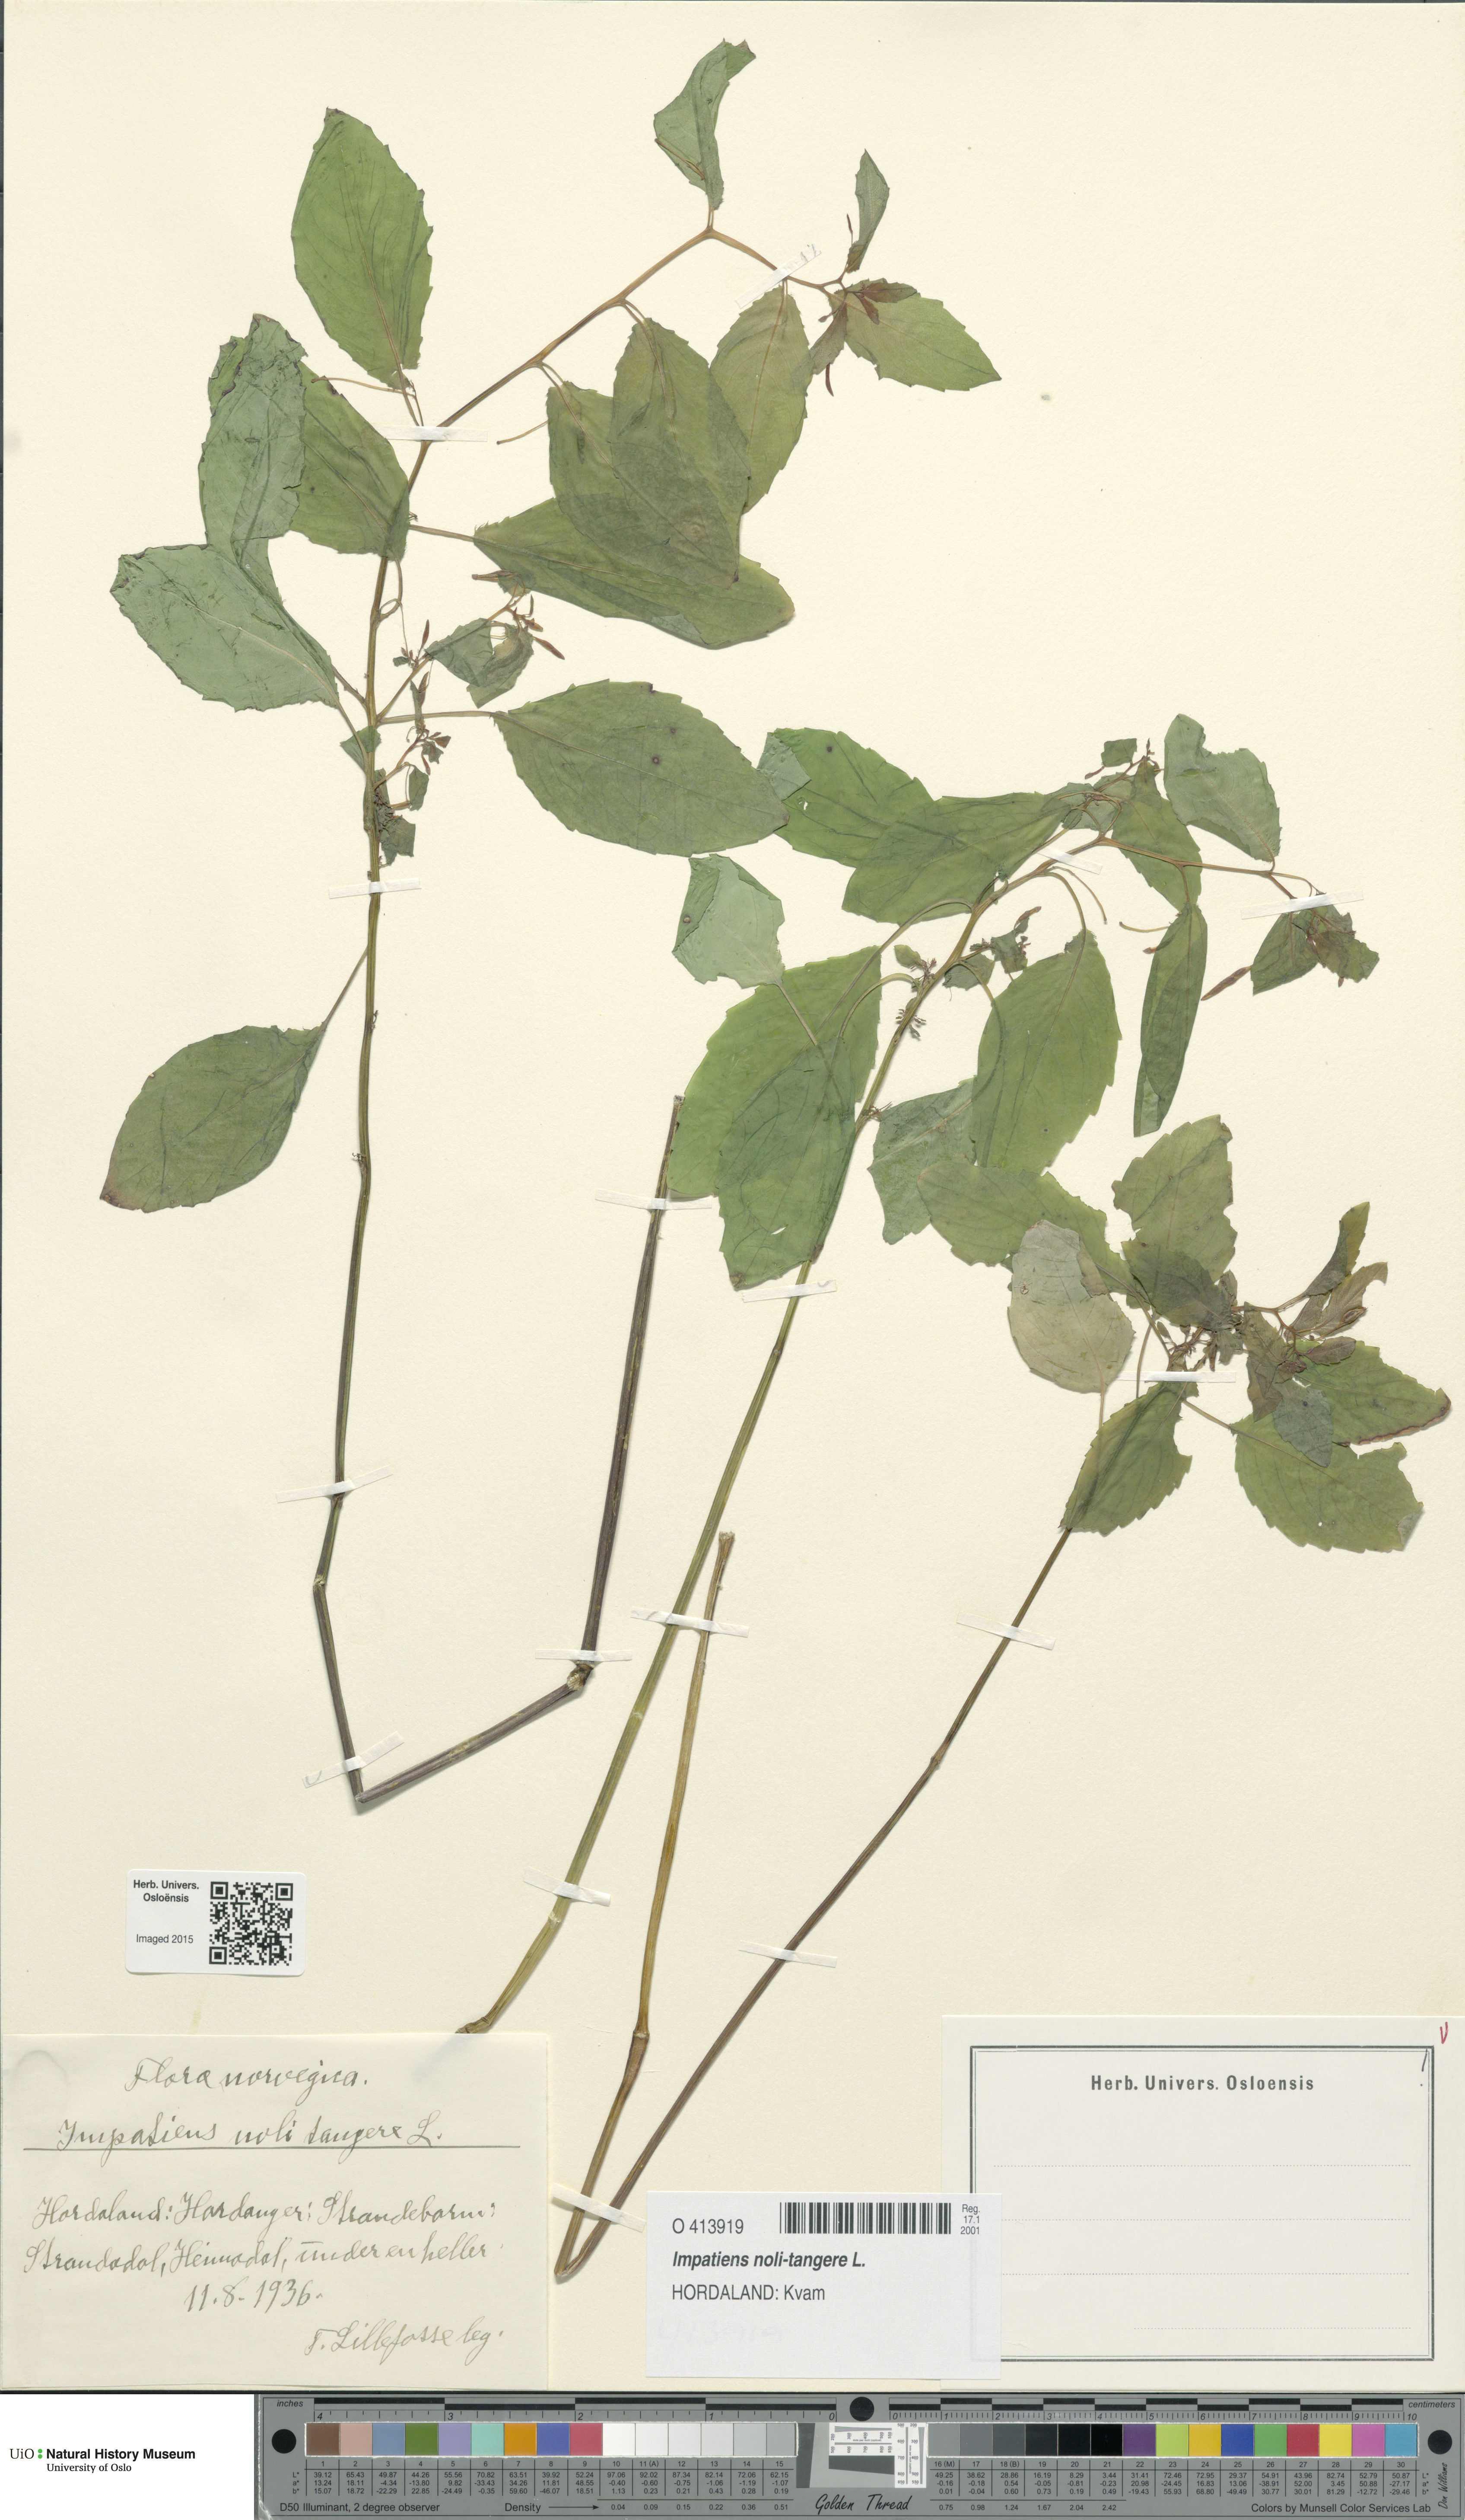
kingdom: Plantae
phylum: Tracheophyta
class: Magnoliopsida
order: Ericales
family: Balsaminaceae
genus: Impatiens
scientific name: Impatiens noli-tangere
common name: Touch-me-not balsam
